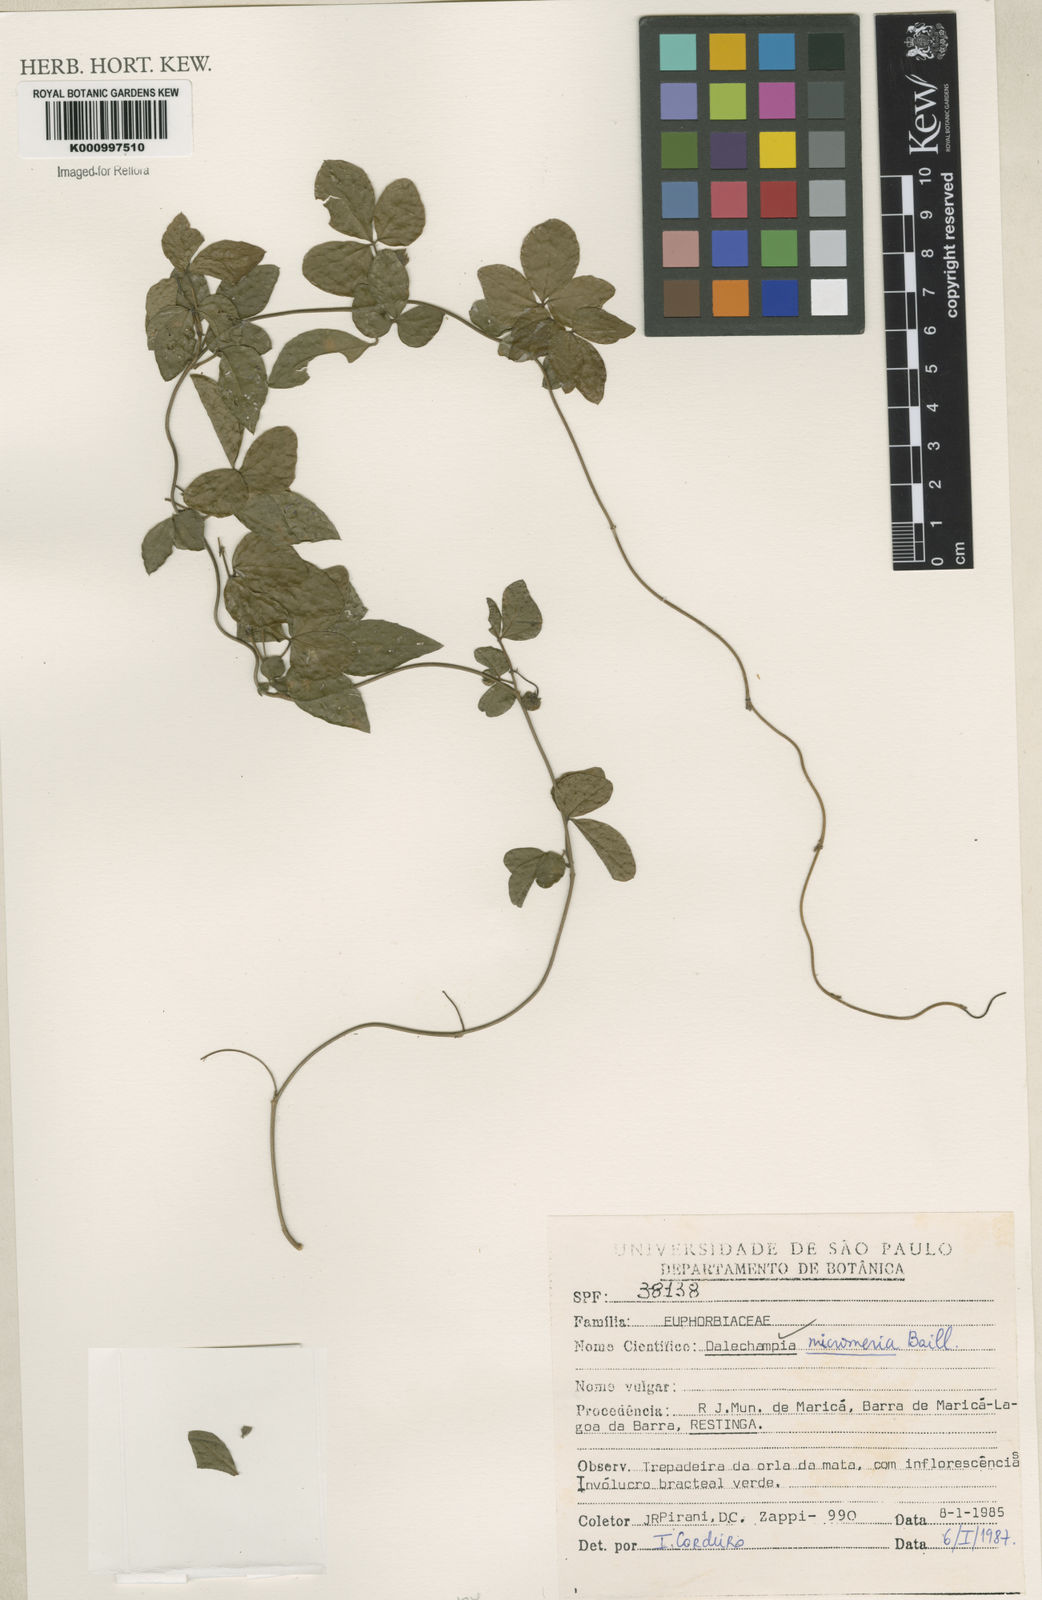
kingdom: Plantae
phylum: Tracheophyta
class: Magnoliopsida
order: Malpighiales
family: Euphorbiaceae
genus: Dalechampia
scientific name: Dalechampia micromeria
